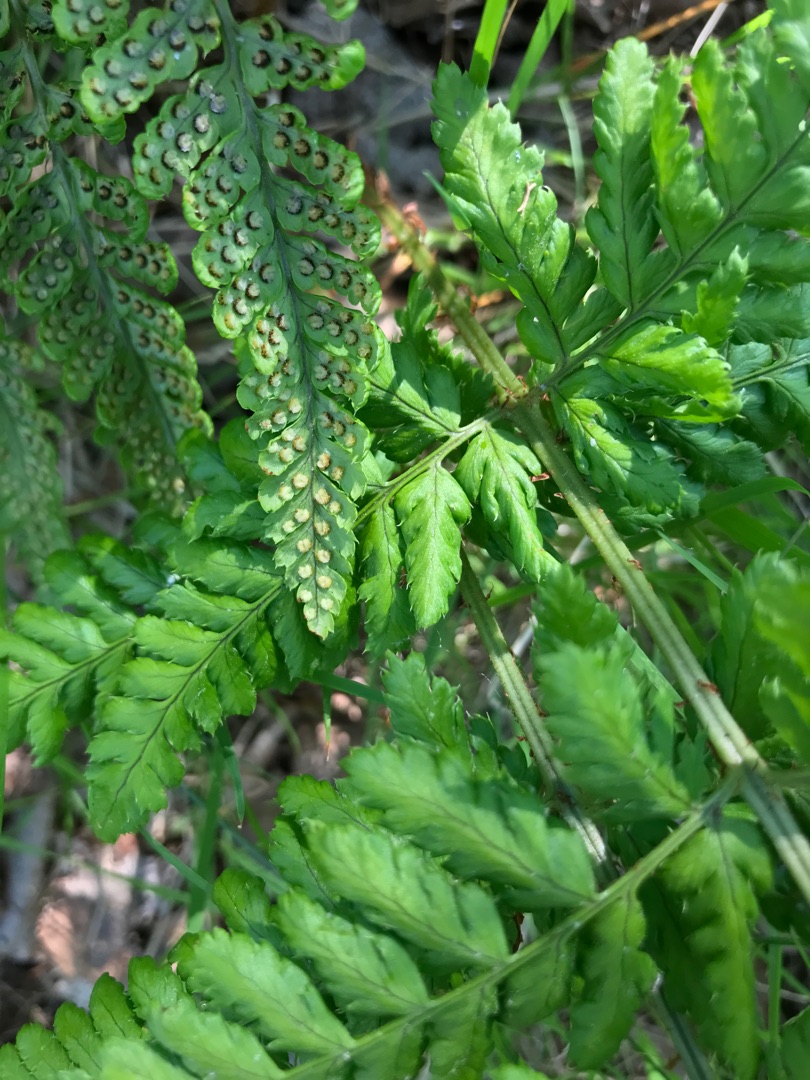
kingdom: Plantae
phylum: Tracheophyta
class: Polypodiopsida
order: Polypodiales
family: Dryopteridaceae
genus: Dryopteris
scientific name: Dryopteris dilatata
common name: Bredbladet mangeløv
